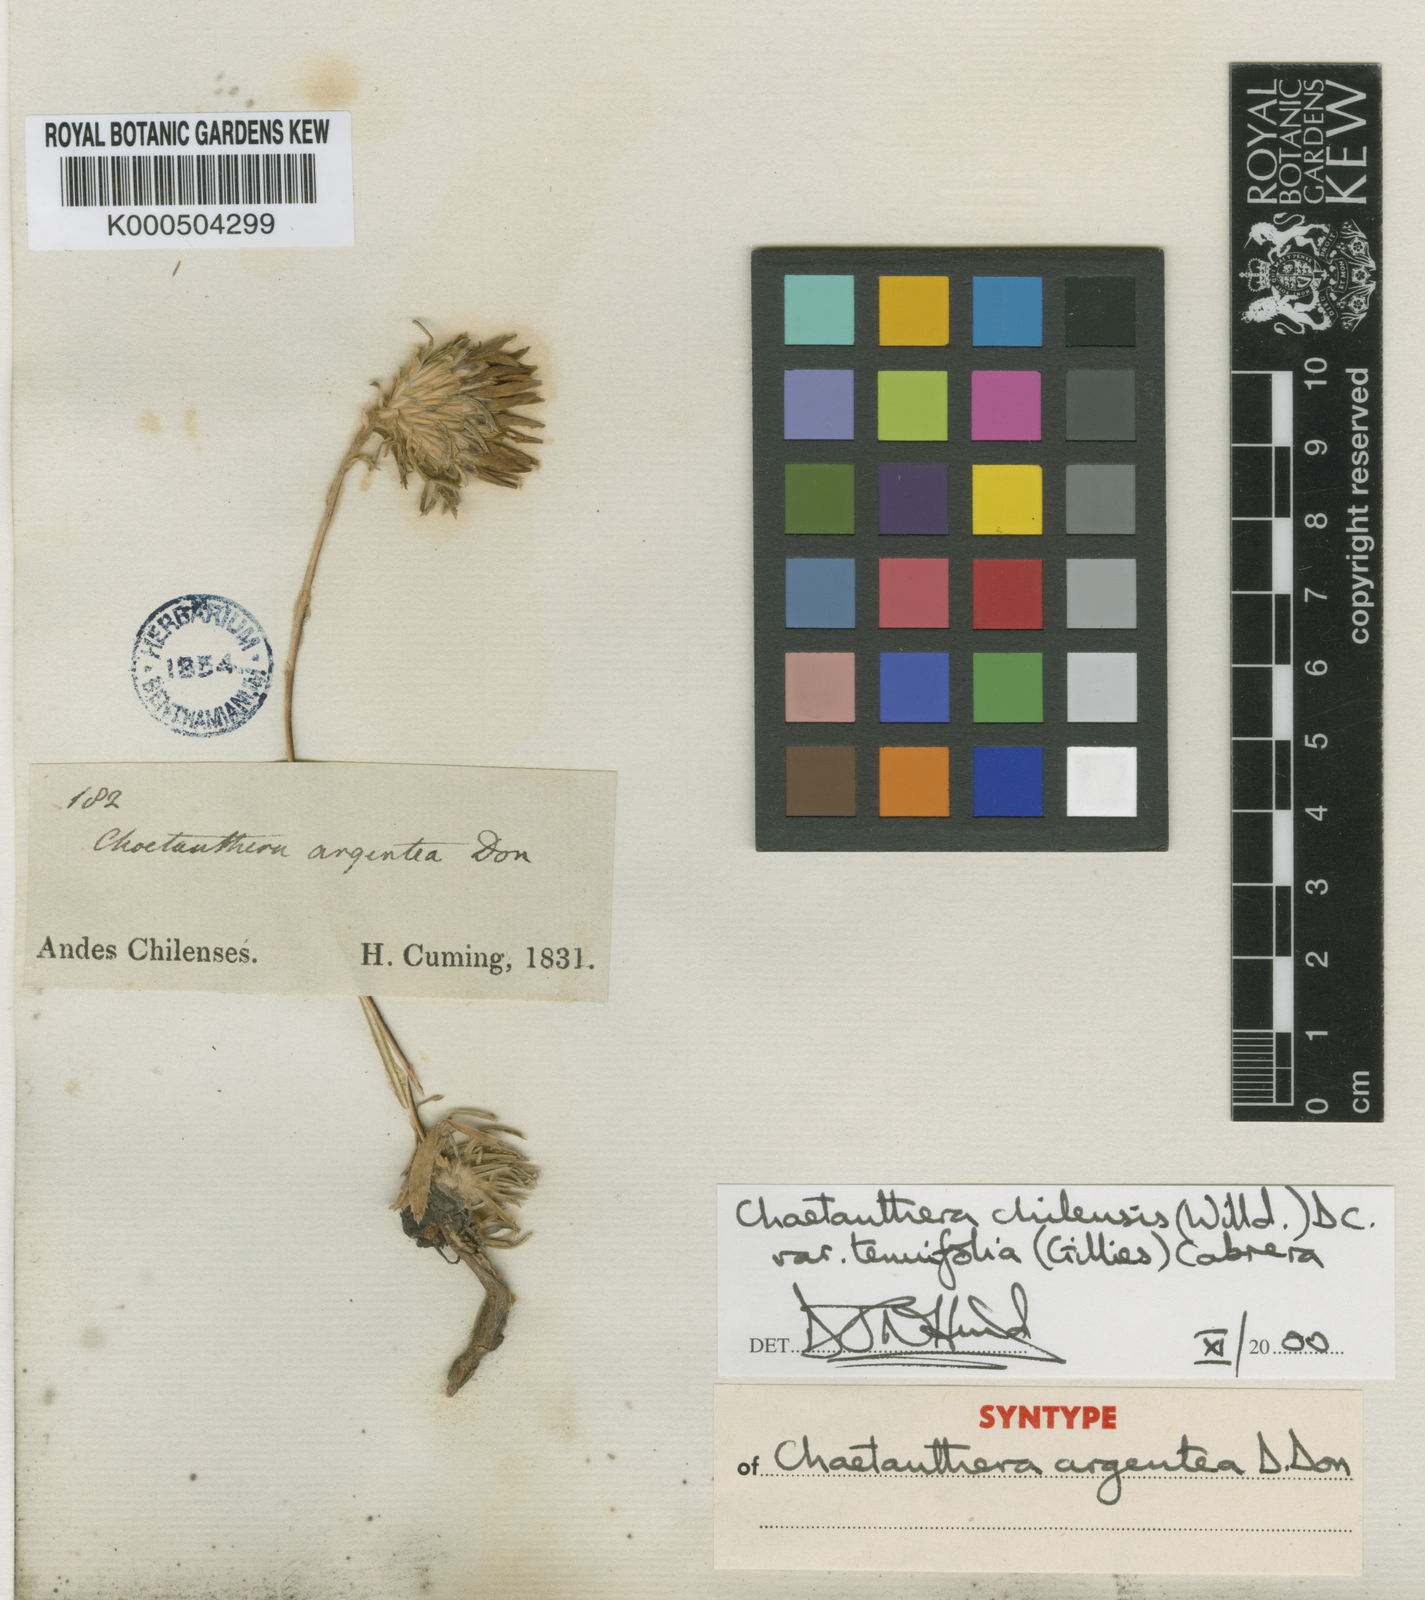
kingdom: Plantae
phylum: Tracheophyta
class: Magnoliopsida
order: Asterales
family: Asteraceae
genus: Chaetanthera
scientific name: Chaetanthera chilensis
